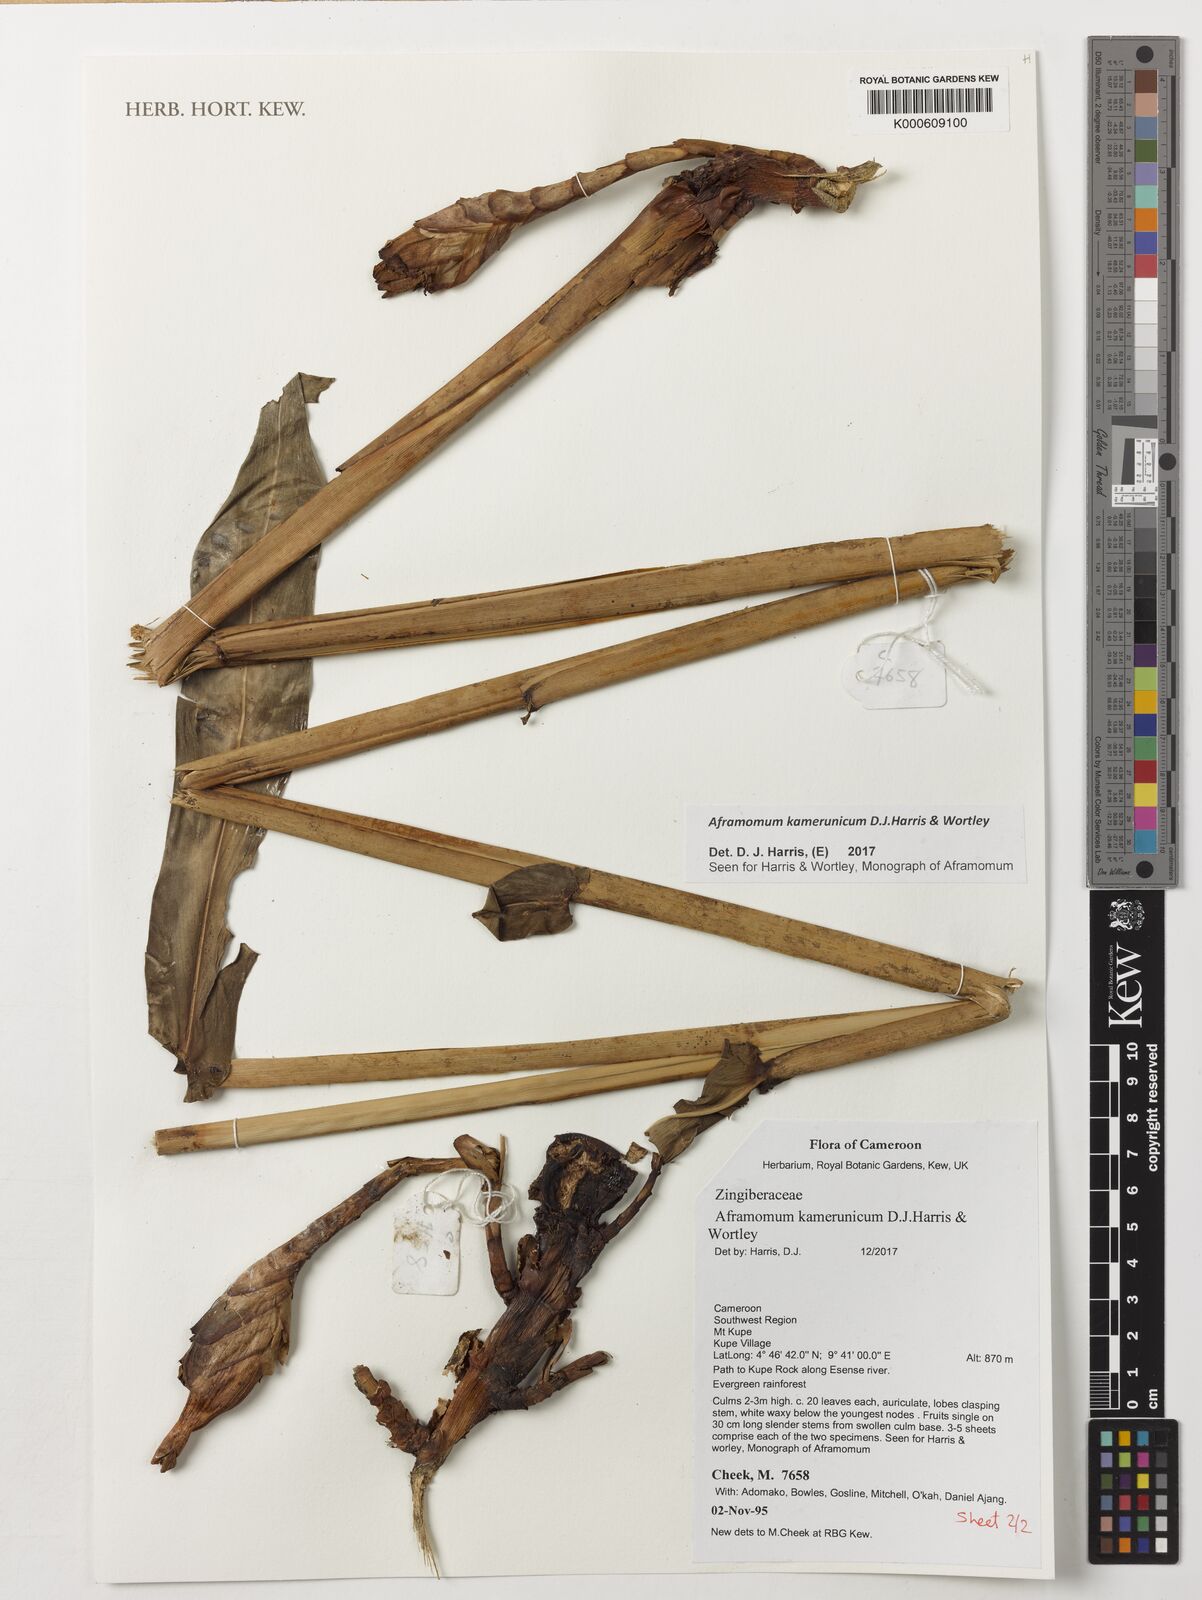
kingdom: Plantae
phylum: Tracheophyta
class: Liliopsida
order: Zingiberales
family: Zingiberaceae
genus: Aframomum
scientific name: Aframomum kamerunicum
